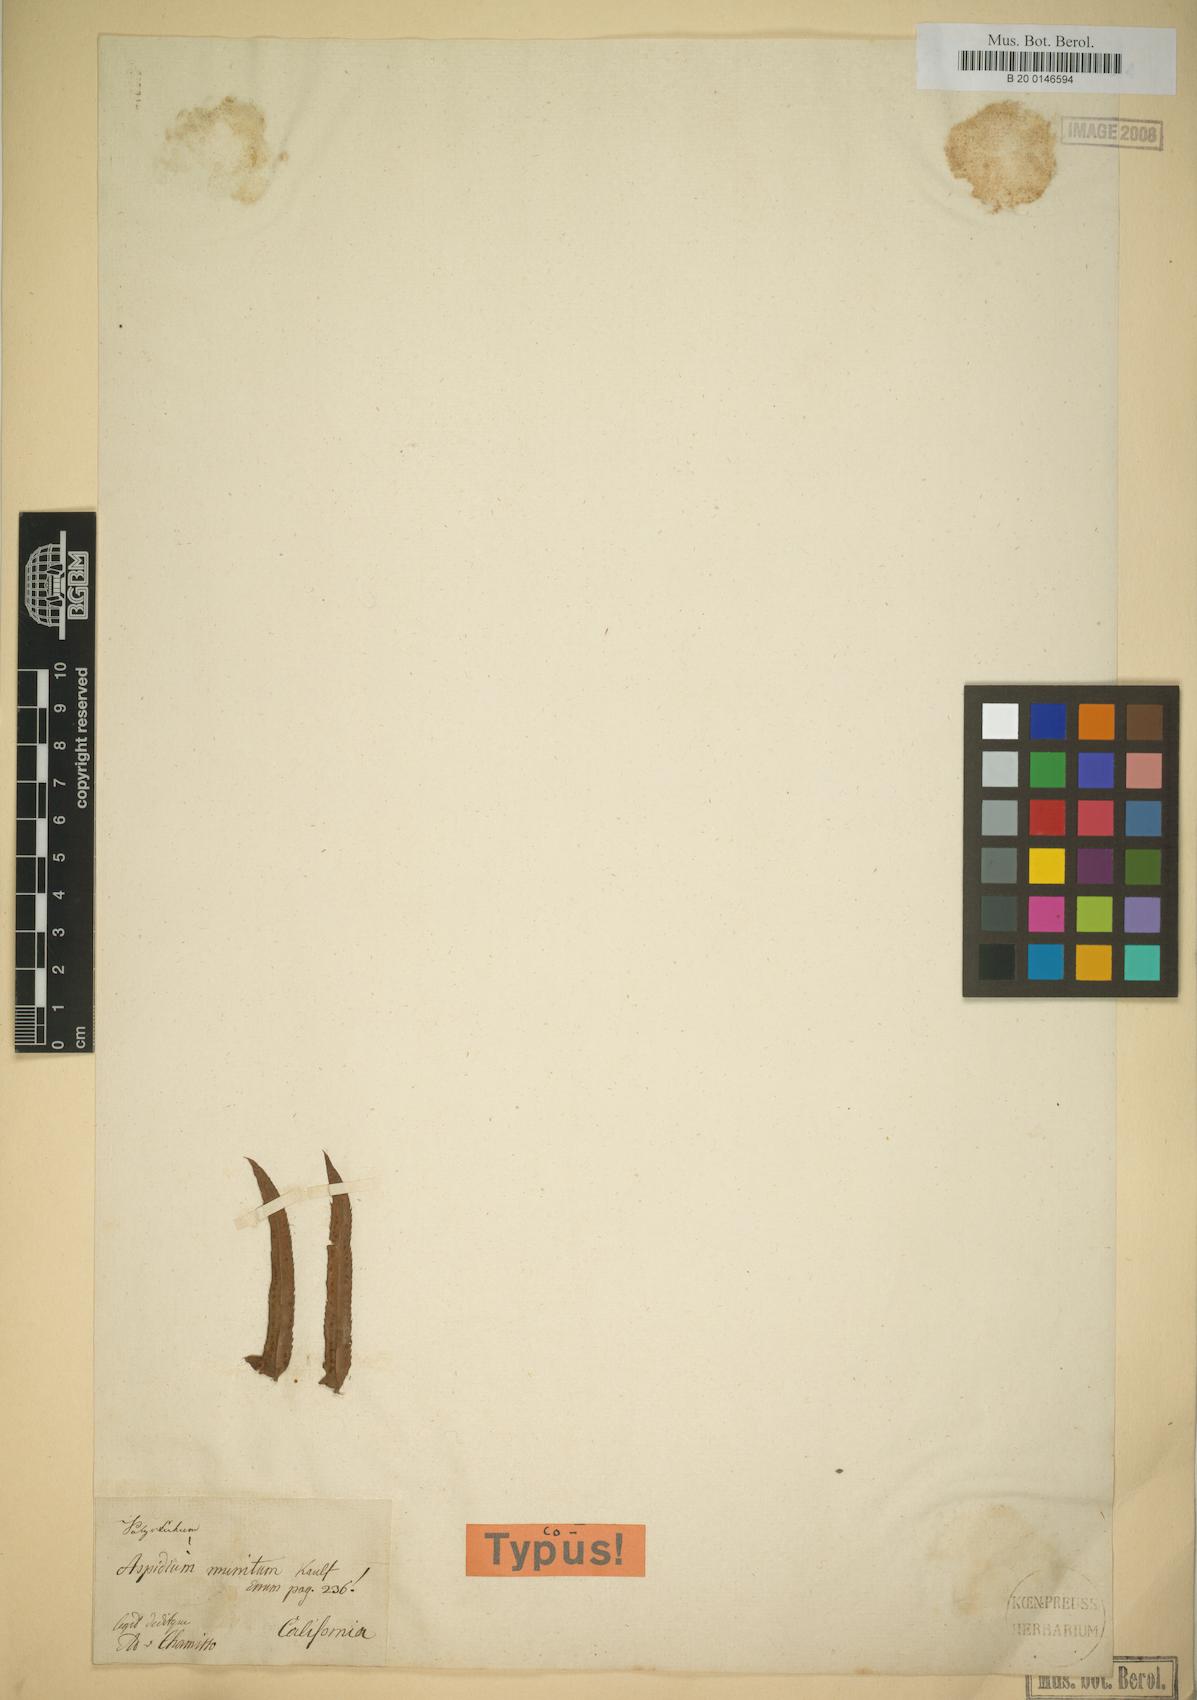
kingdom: Plantae
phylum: Tracheophyta
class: Polypodiopsida
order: Polypodiales
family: Dryopteridaceae
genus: Polystichum
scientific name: Polystichum munitum
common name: Western sword-fern
